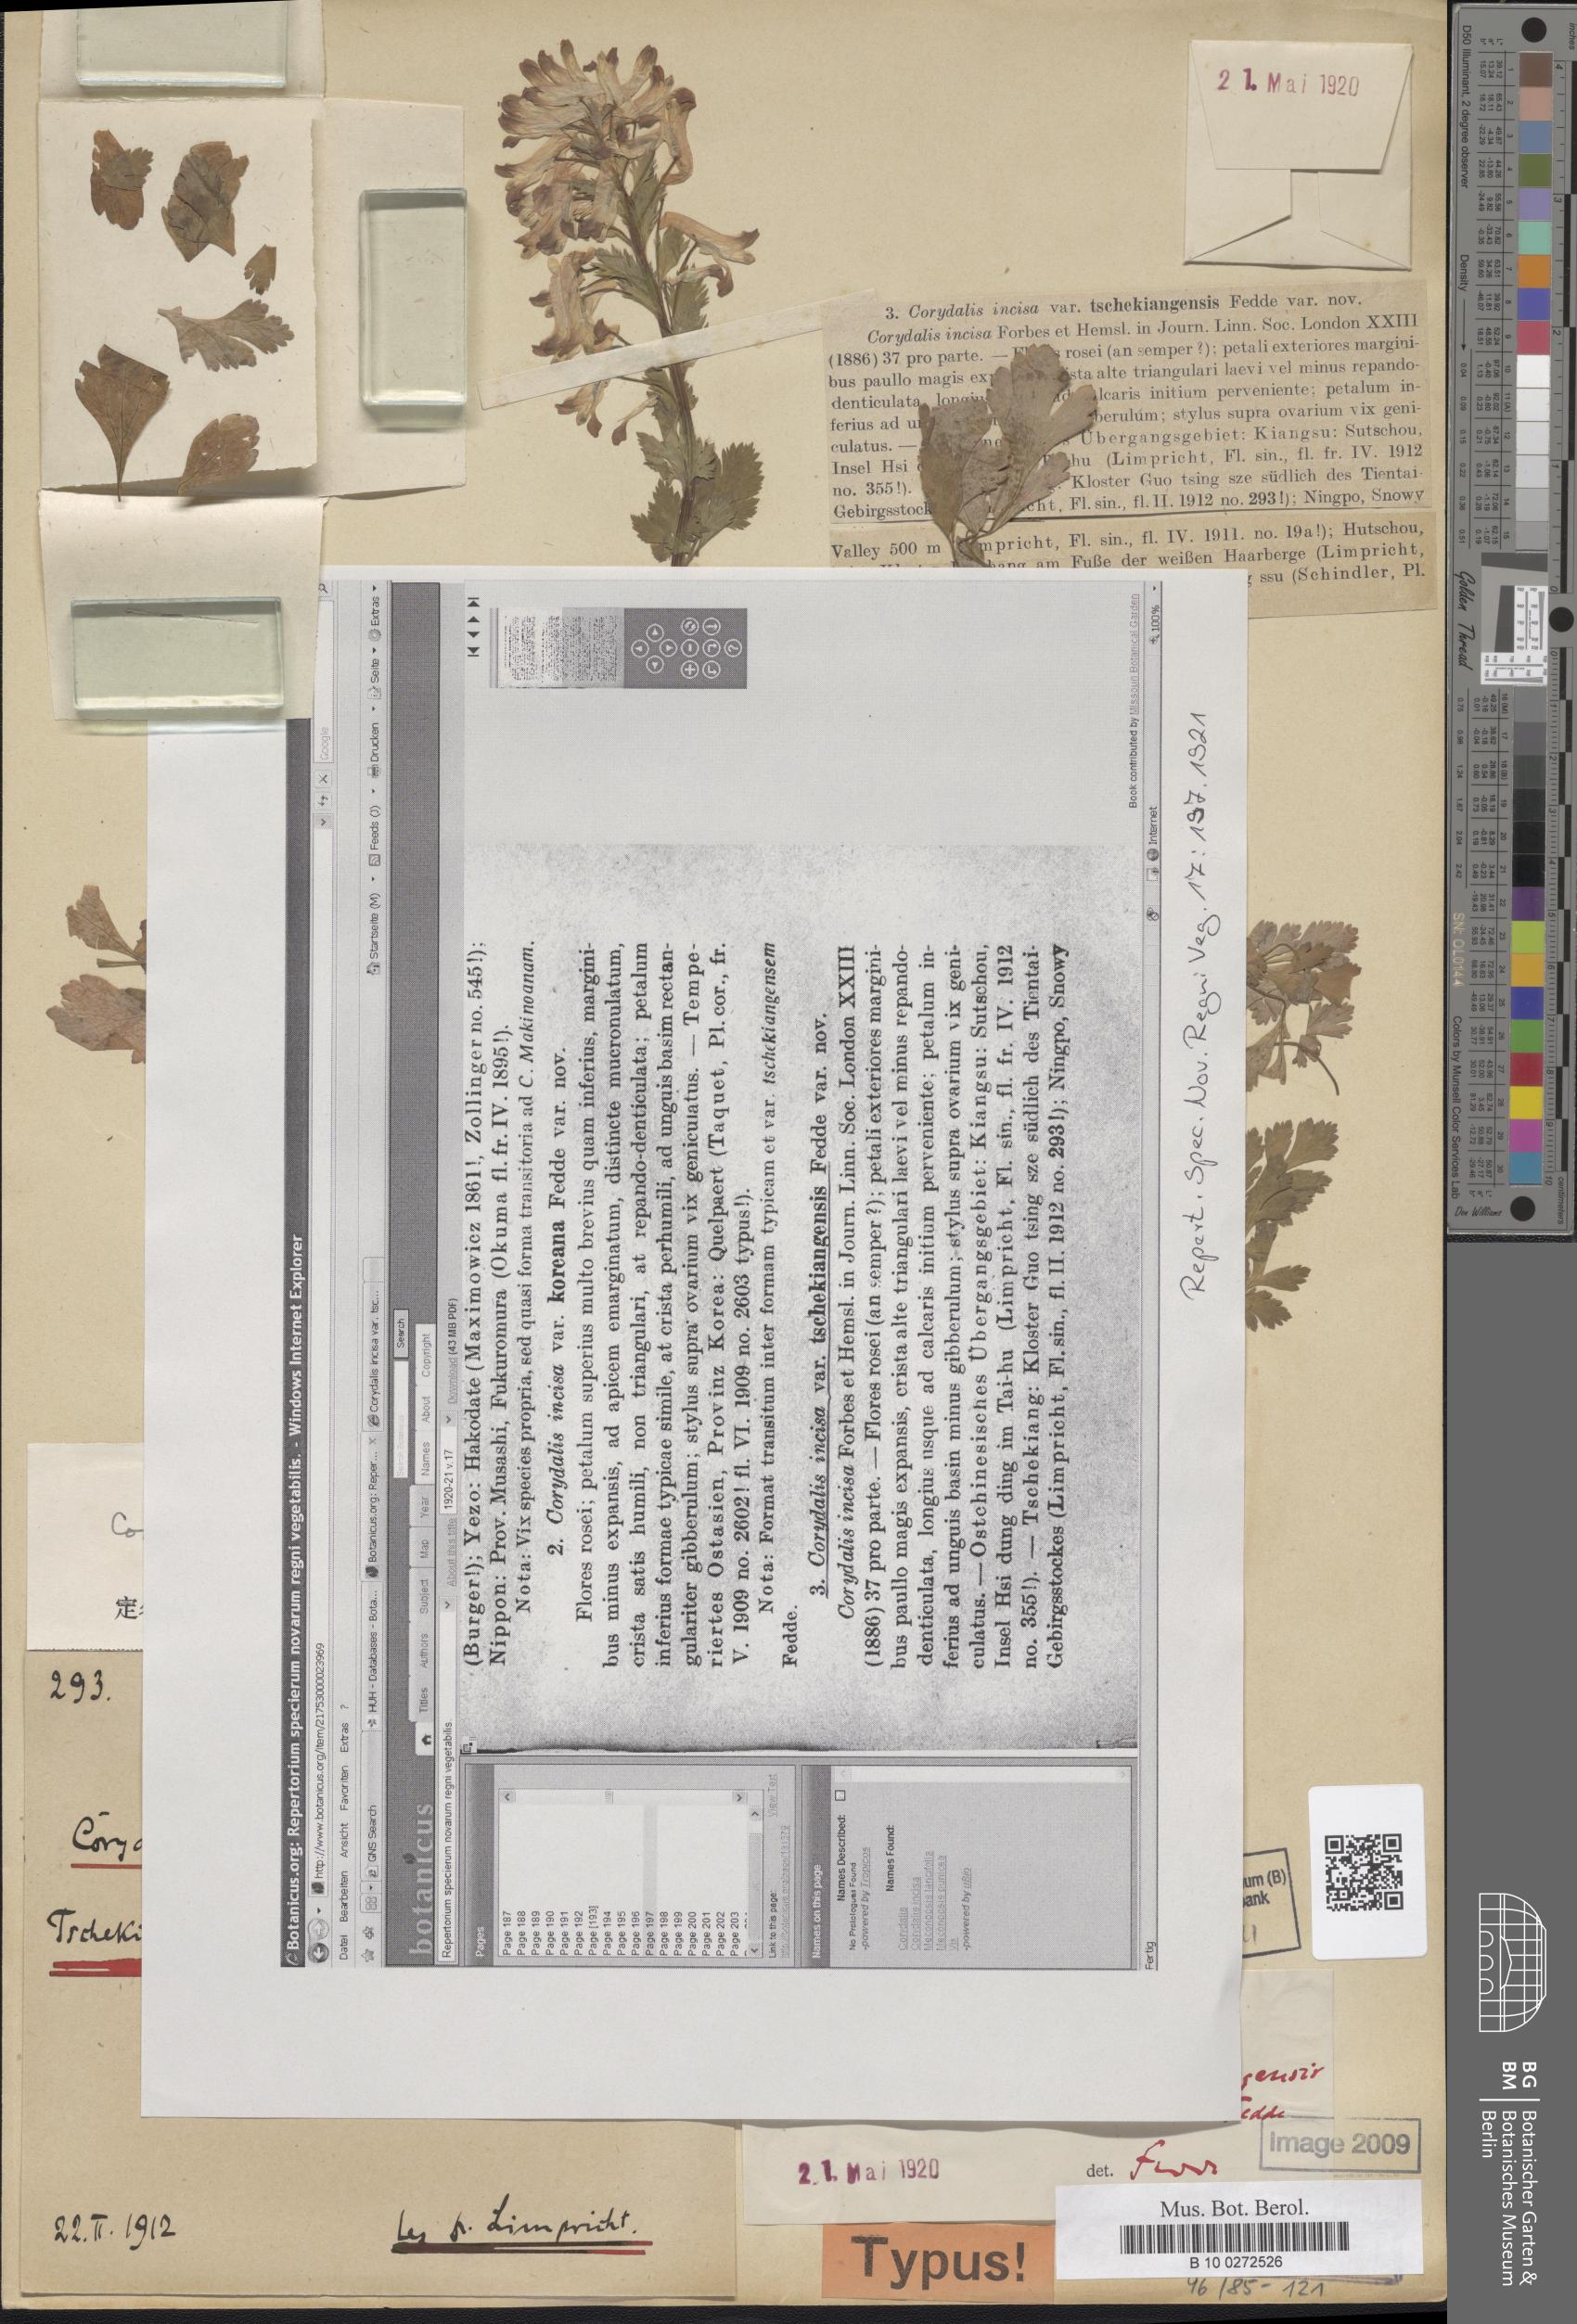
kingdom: Plantae
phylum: Tracheophyta
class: Magnoliopsida
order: Ranunculales
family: Papaveraceae
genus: Corydalis
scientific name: Corydalis incisa
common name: Incised fumewort
